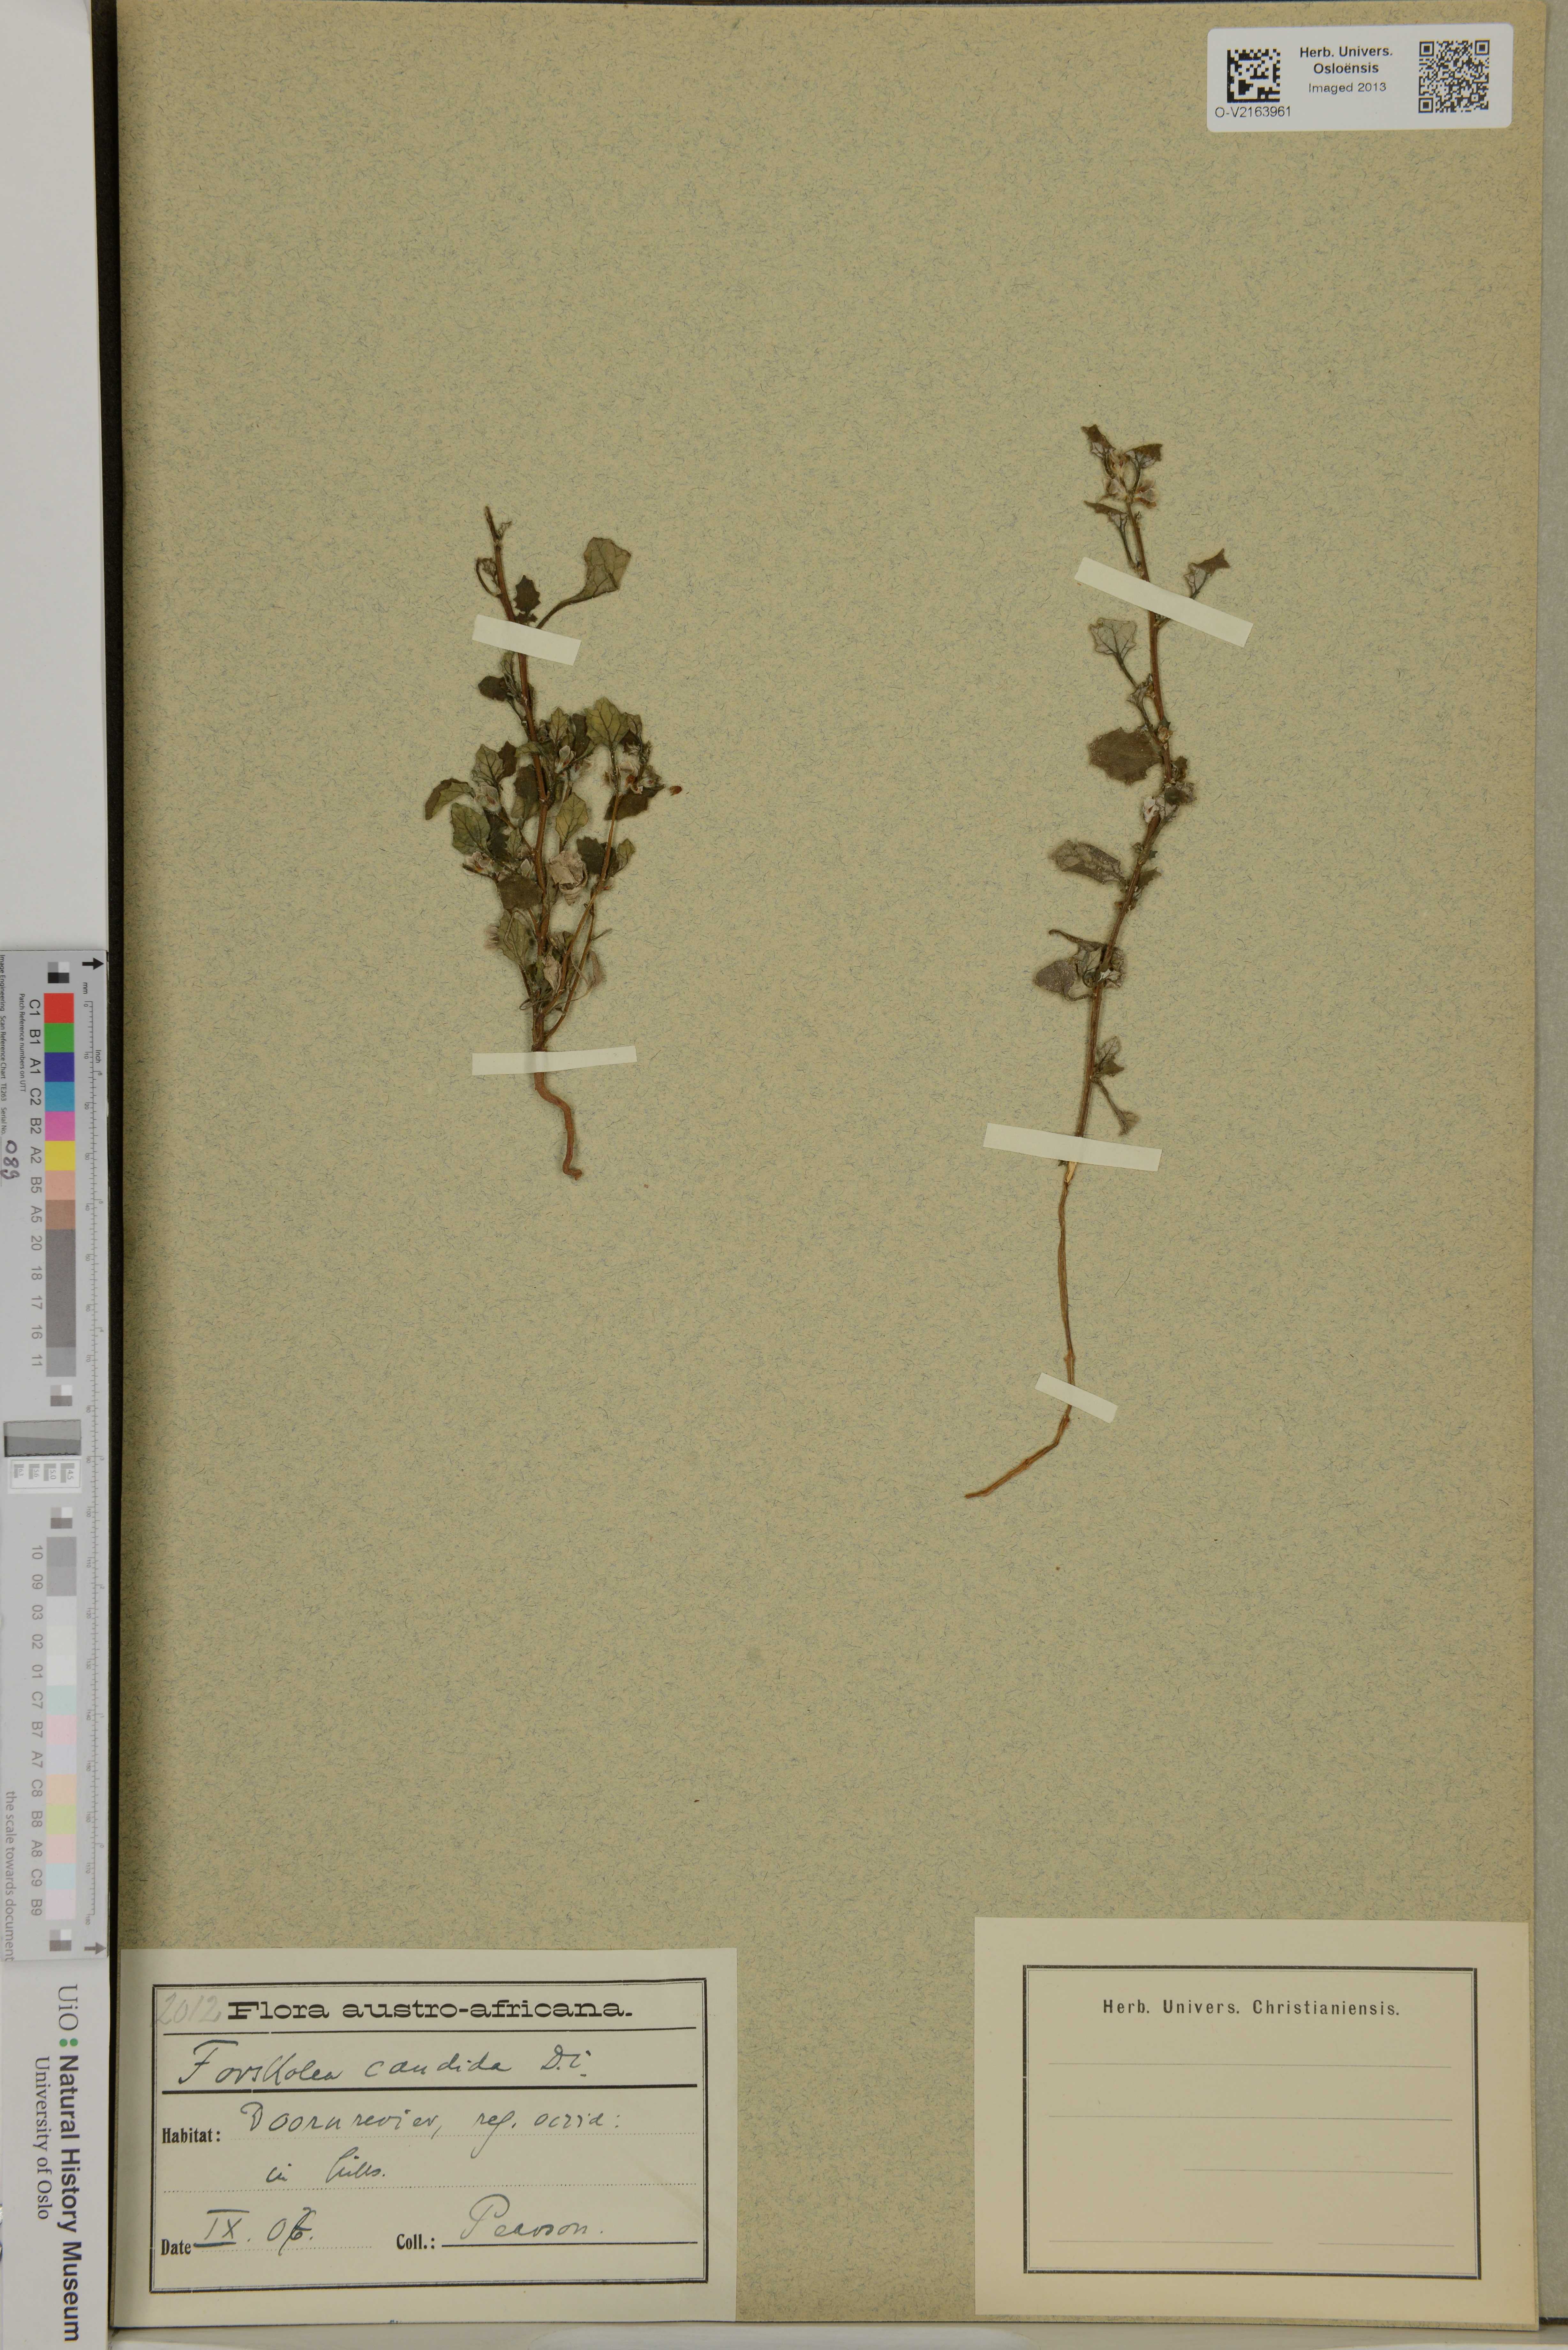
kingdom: Plantae
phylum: Tracheophyta
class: Magnoliopsida
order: Rosales
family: Urticaceae
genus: Forsskaolea
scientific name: Forsskaolea candida
